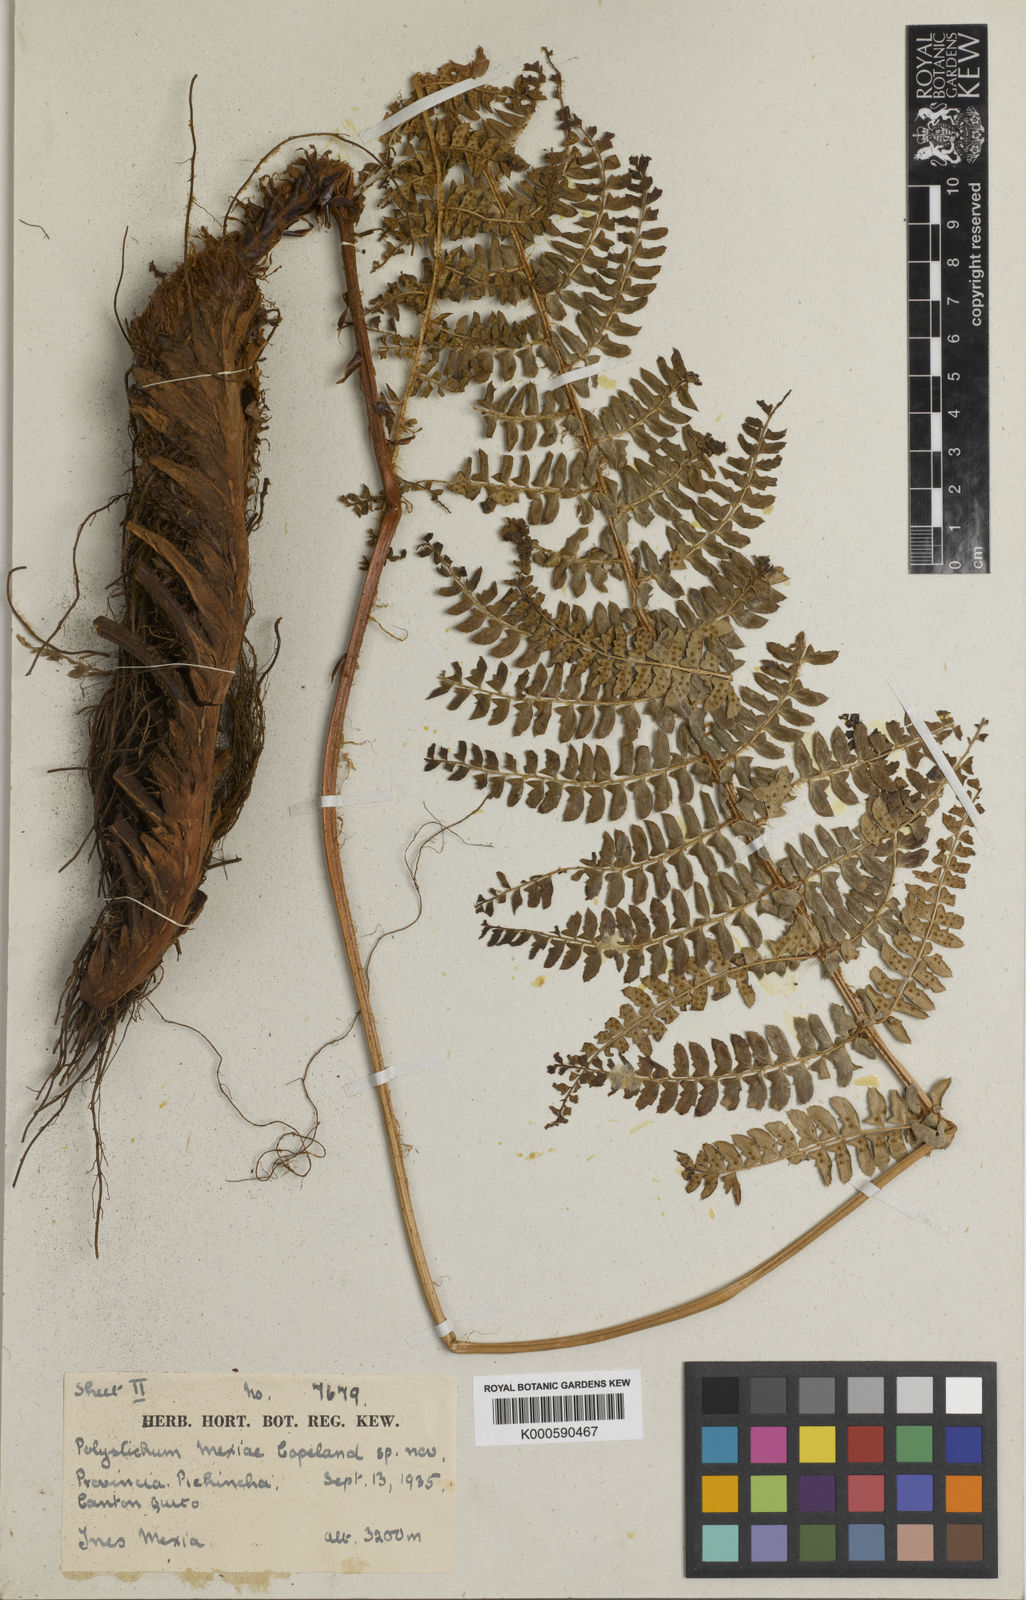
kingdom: Plantae
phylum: Tracheophyta
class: Polypodiopsida
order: Polypodiales
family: Dryopteridaceae
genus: Polystichum
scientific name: Polystichum montevidense
